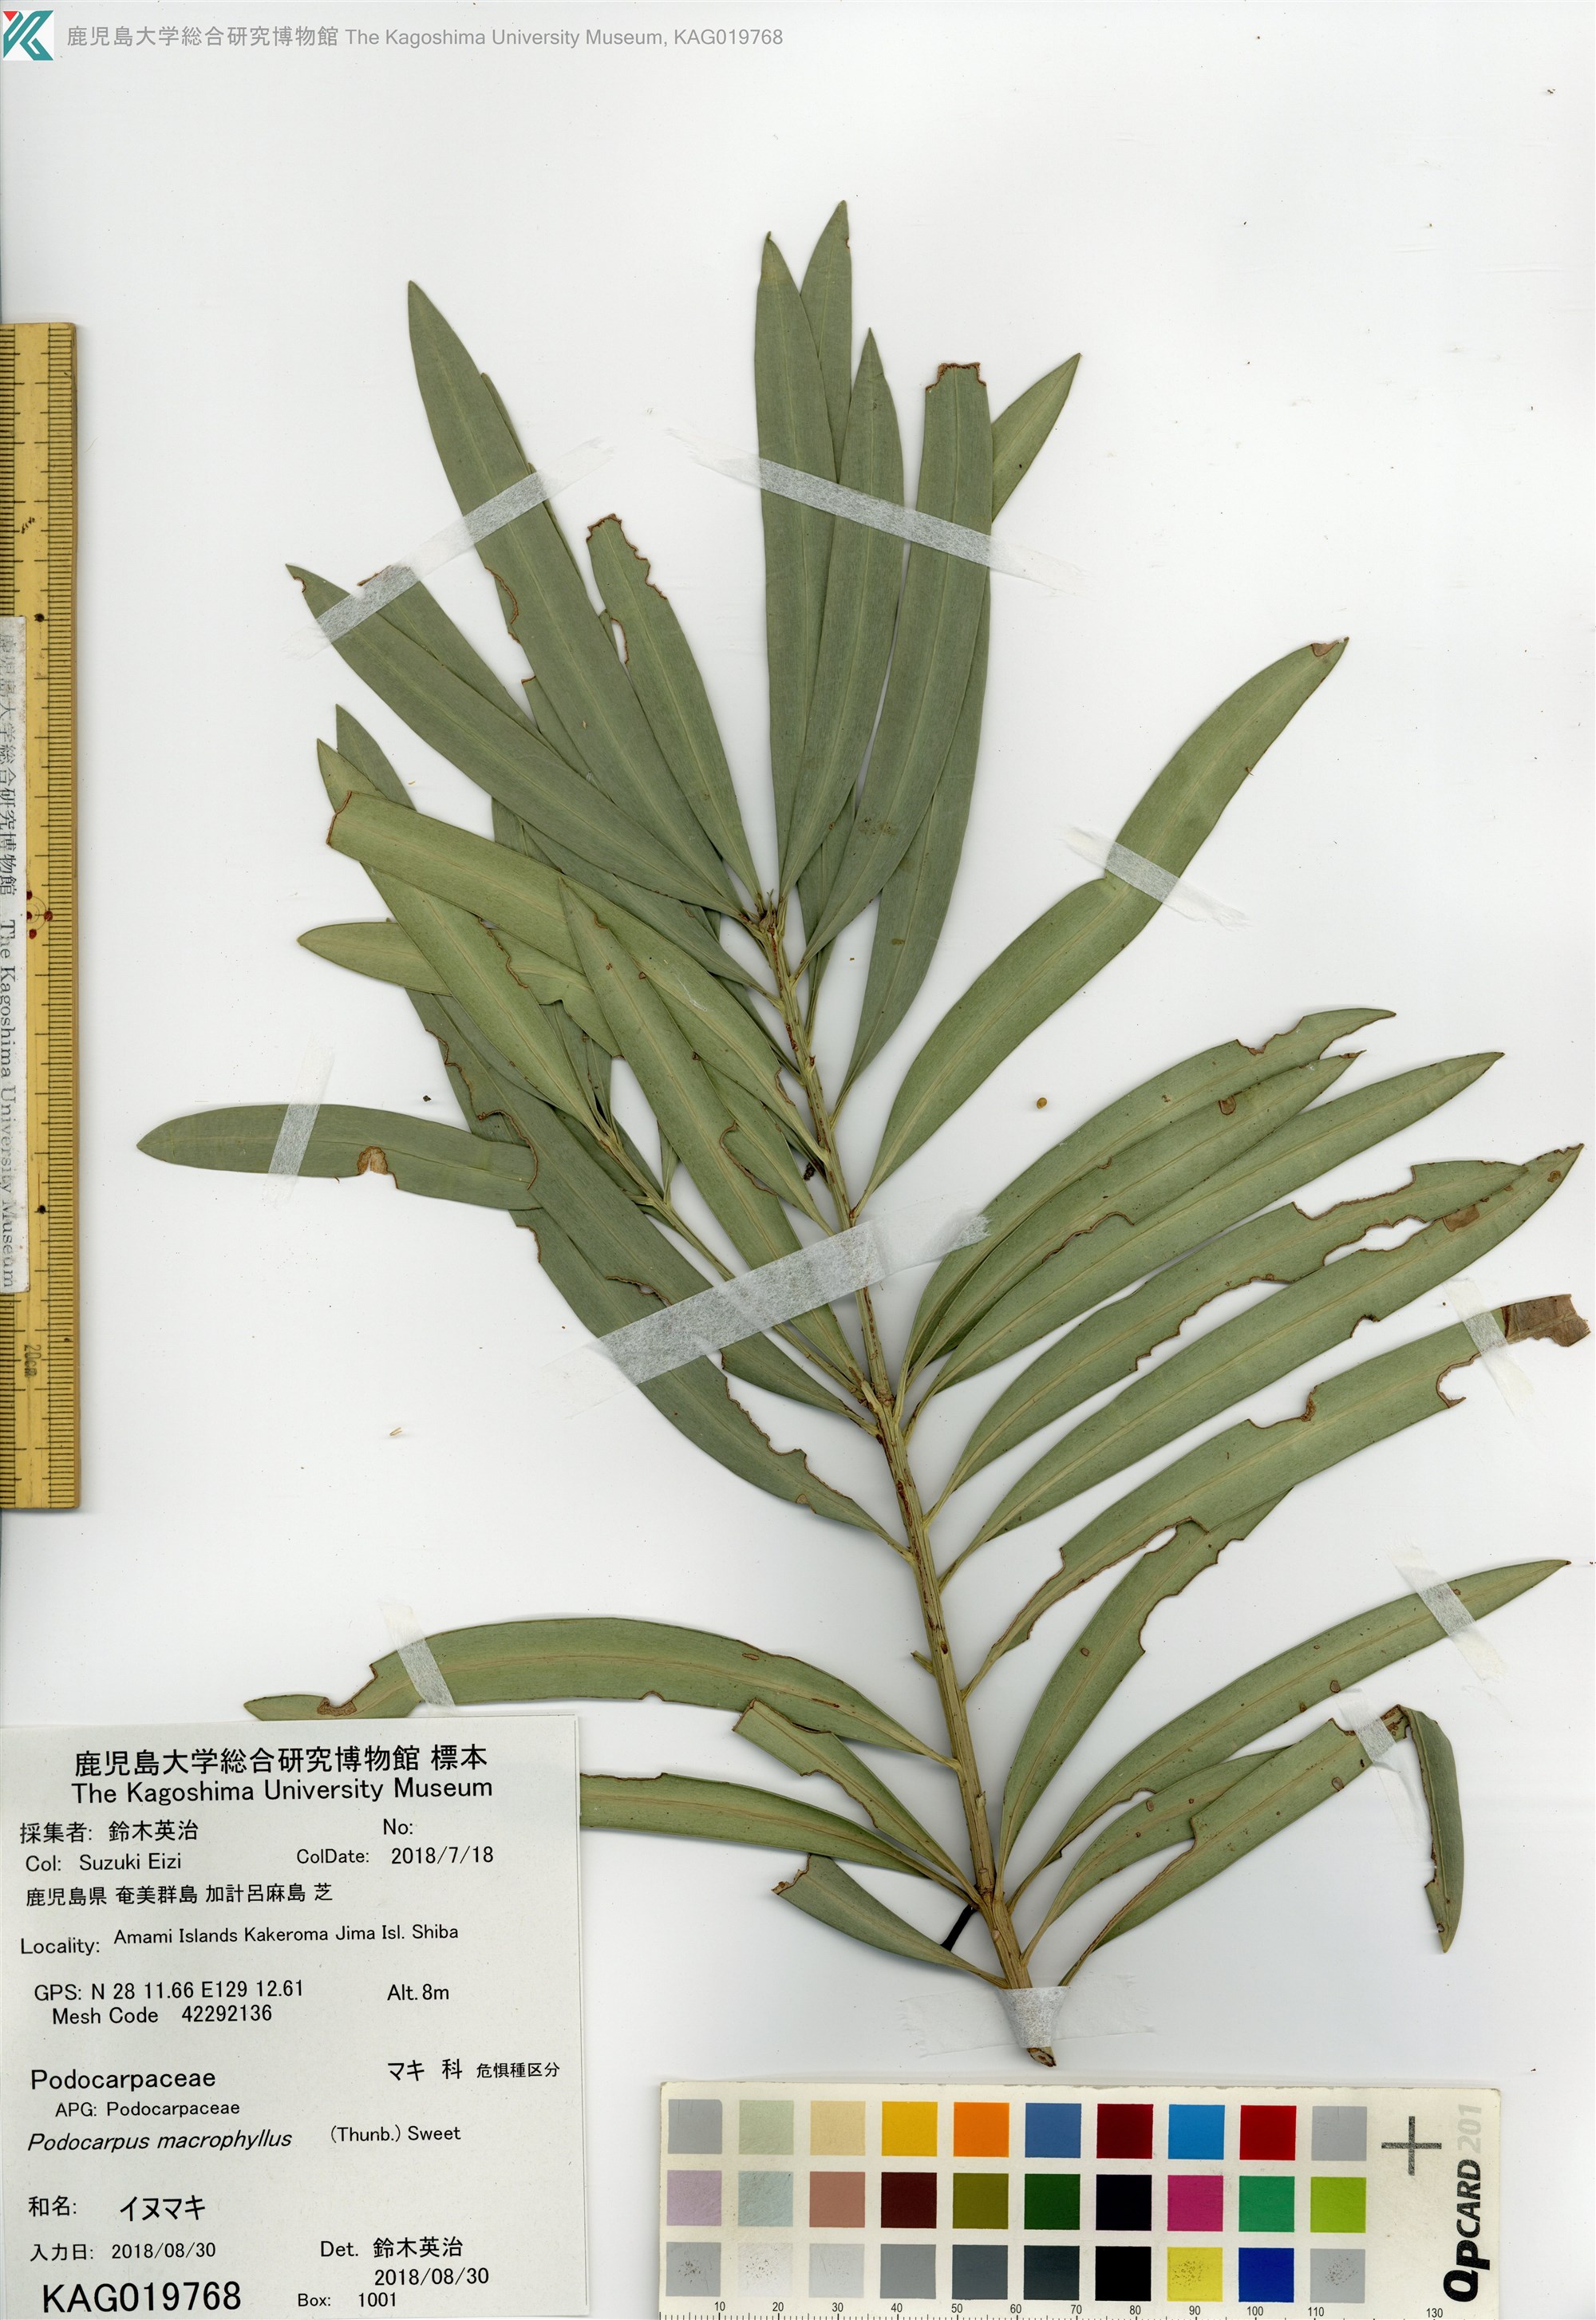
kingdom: Plantae
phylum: Tracheophyta
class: Pinopsida
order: Pinales
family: Podocarpaceae
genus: Podocarpus
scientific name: Podocarpus macrophyllus
